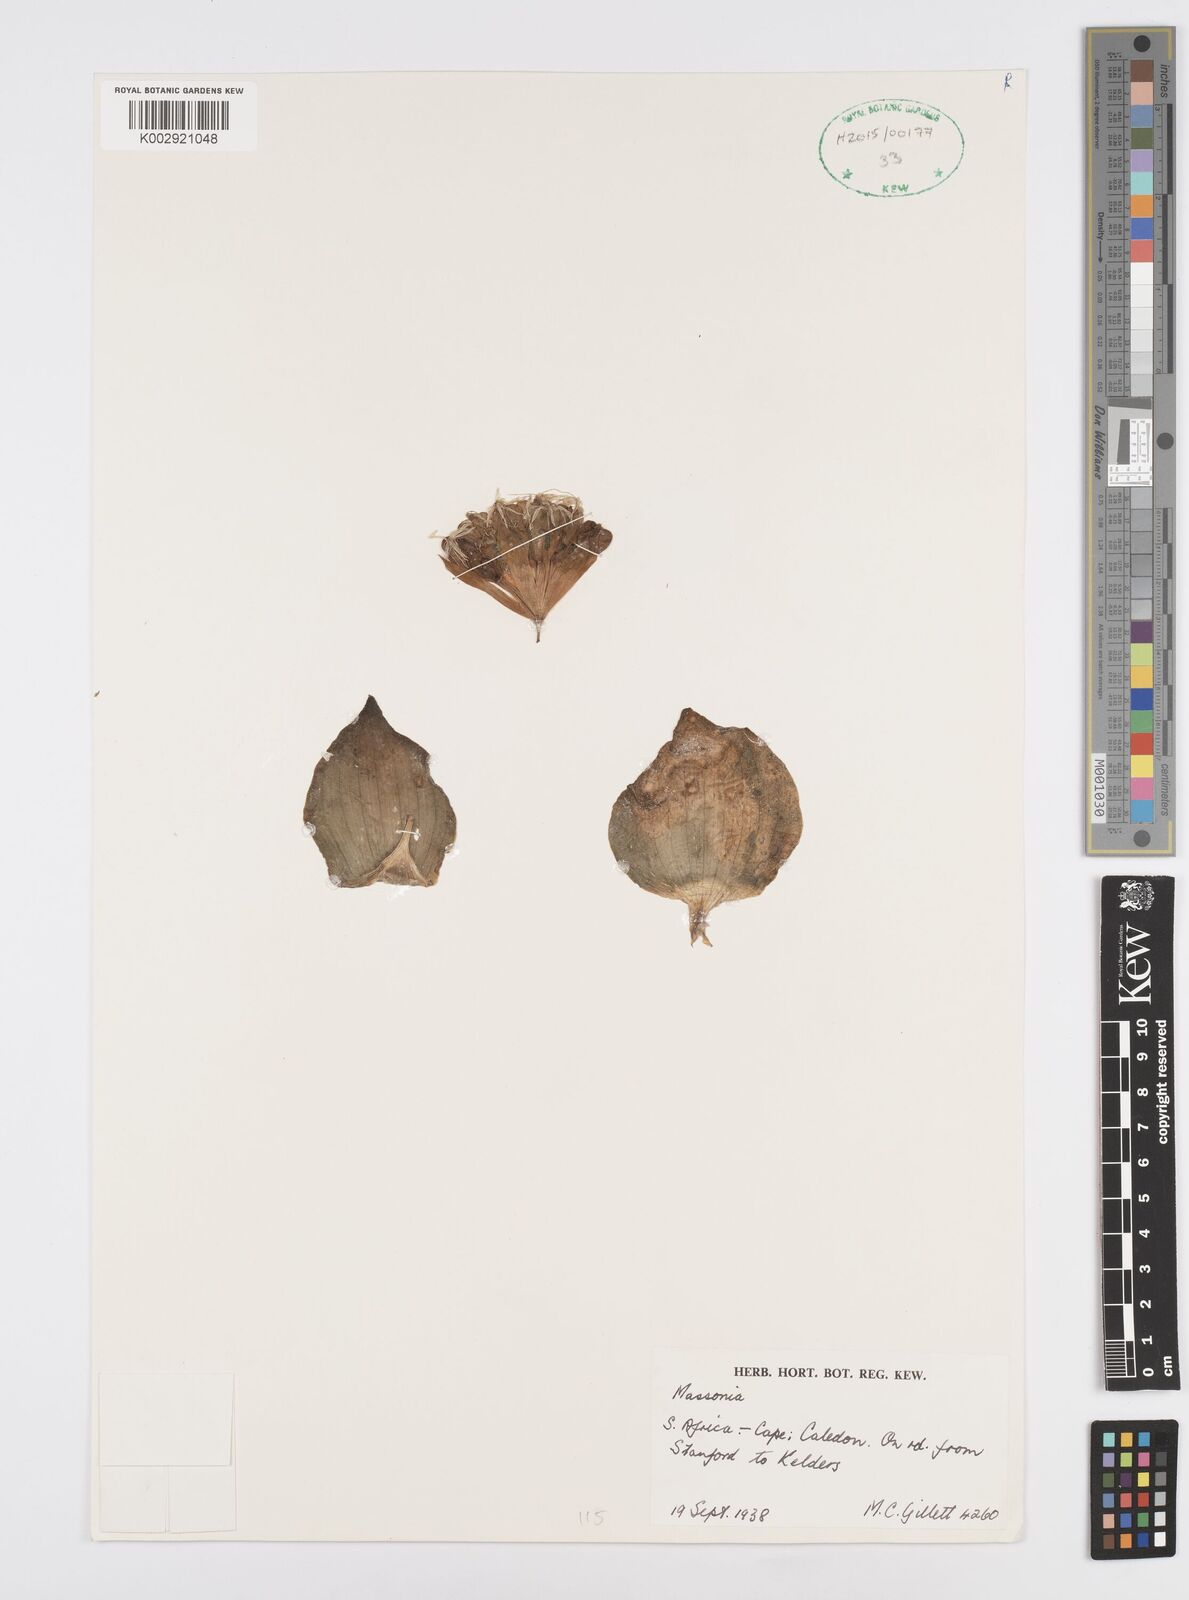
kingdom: Plantae
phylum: Tracheophyta
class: Liliopsida
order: Asparagales
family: Asparagaceae
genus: Massonia
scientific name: Massonia
